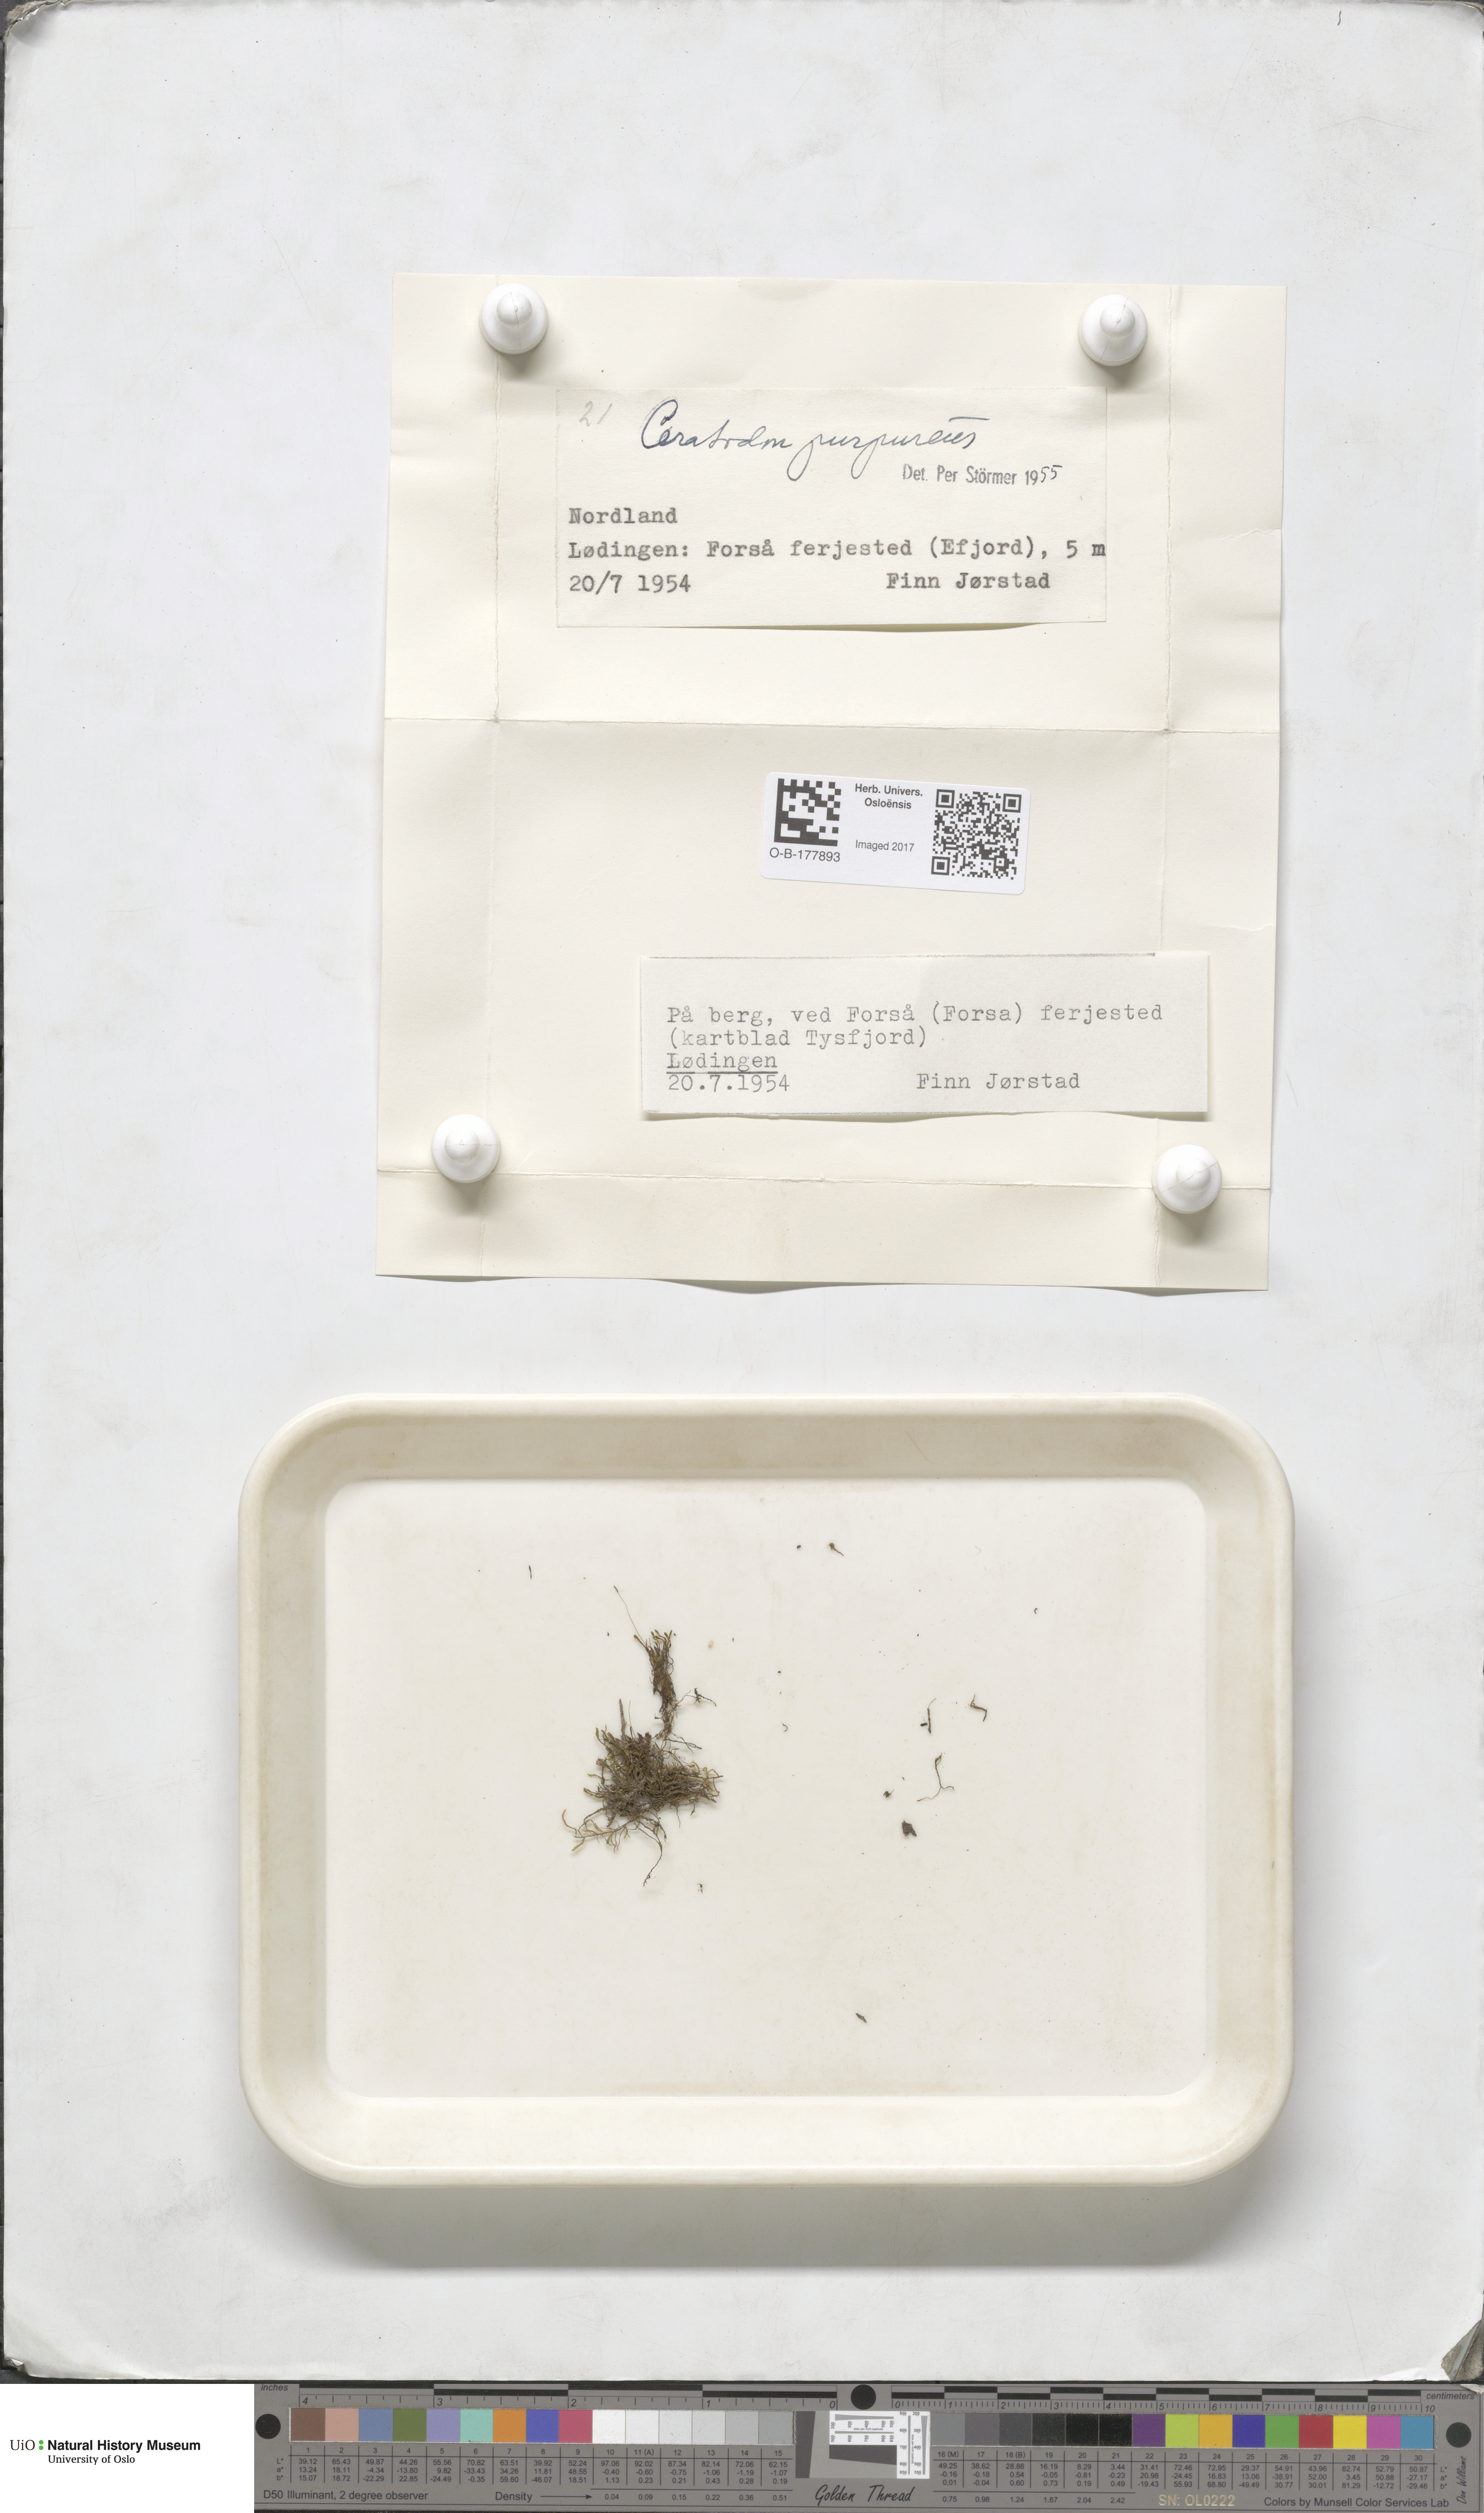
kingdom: Plantae
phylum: Bryophyta
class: Bryopsida
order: Dicranales
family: Ditrichaceae
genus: Ceratodon
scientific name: Ceratodon purpureus
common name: Redshank
